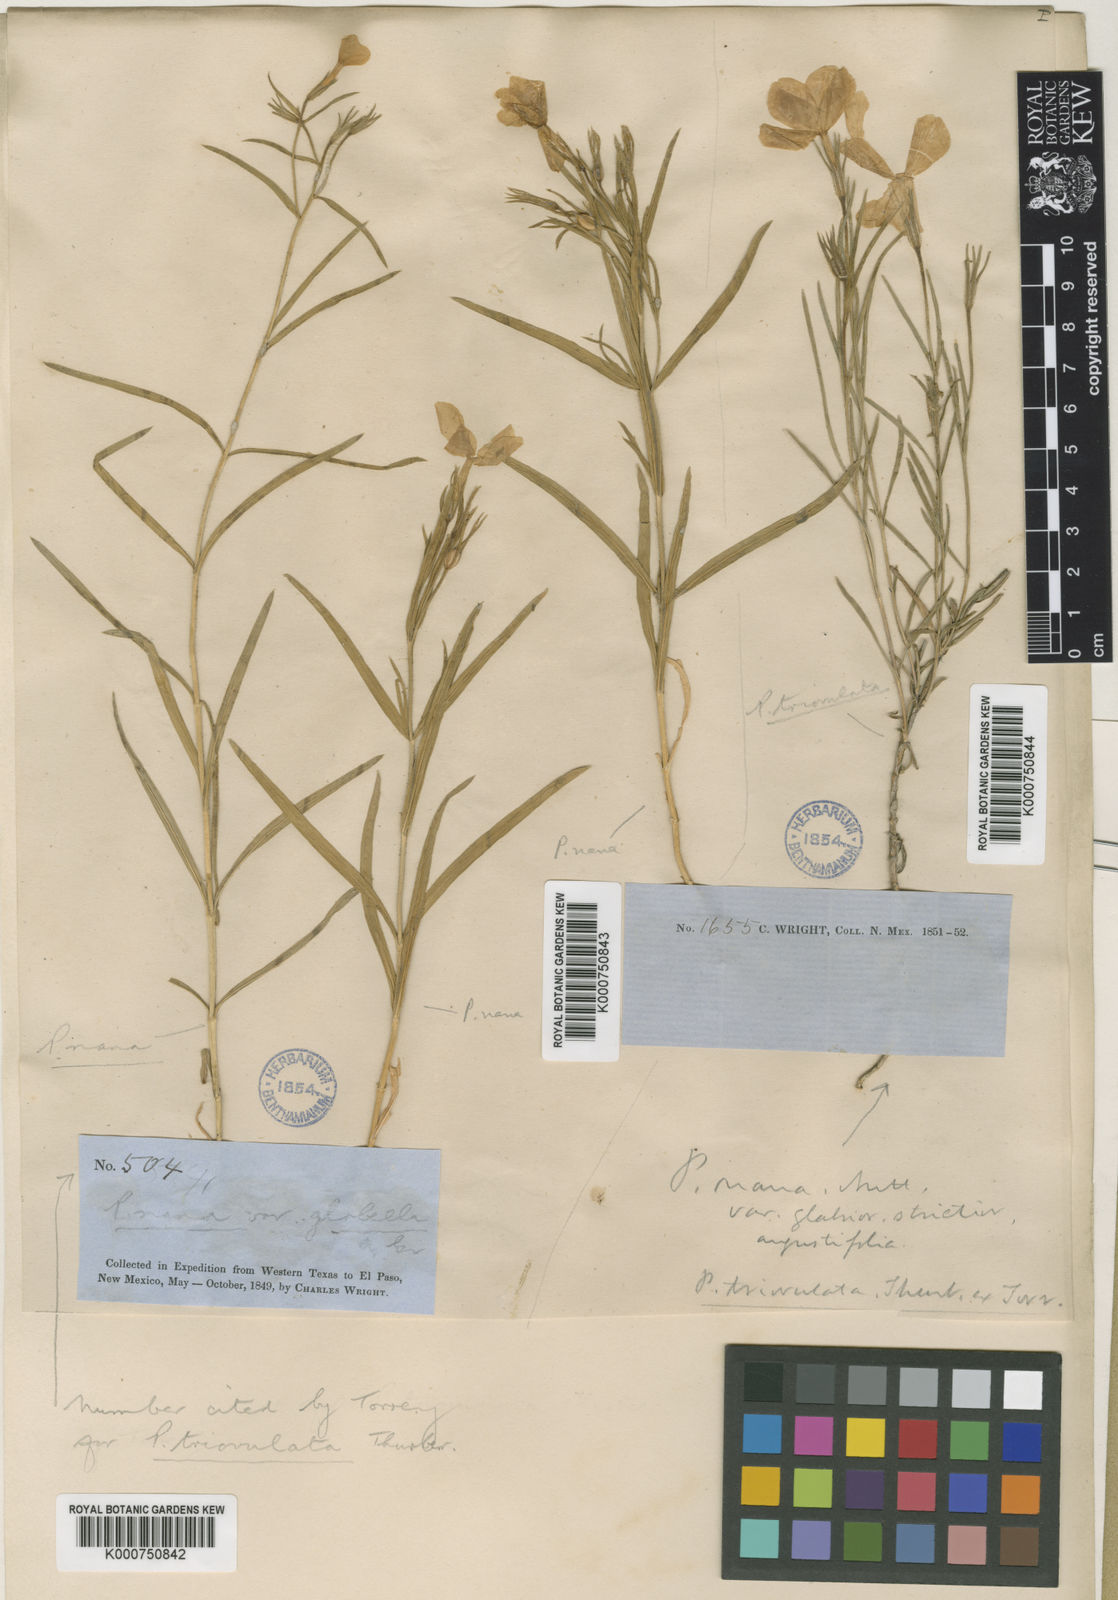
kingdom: Plantae
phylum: Tracheophyta
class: Magnoliopsida
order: Ericales
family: Polemoniaceae
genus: Phlox
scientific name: Phlox triovulata
